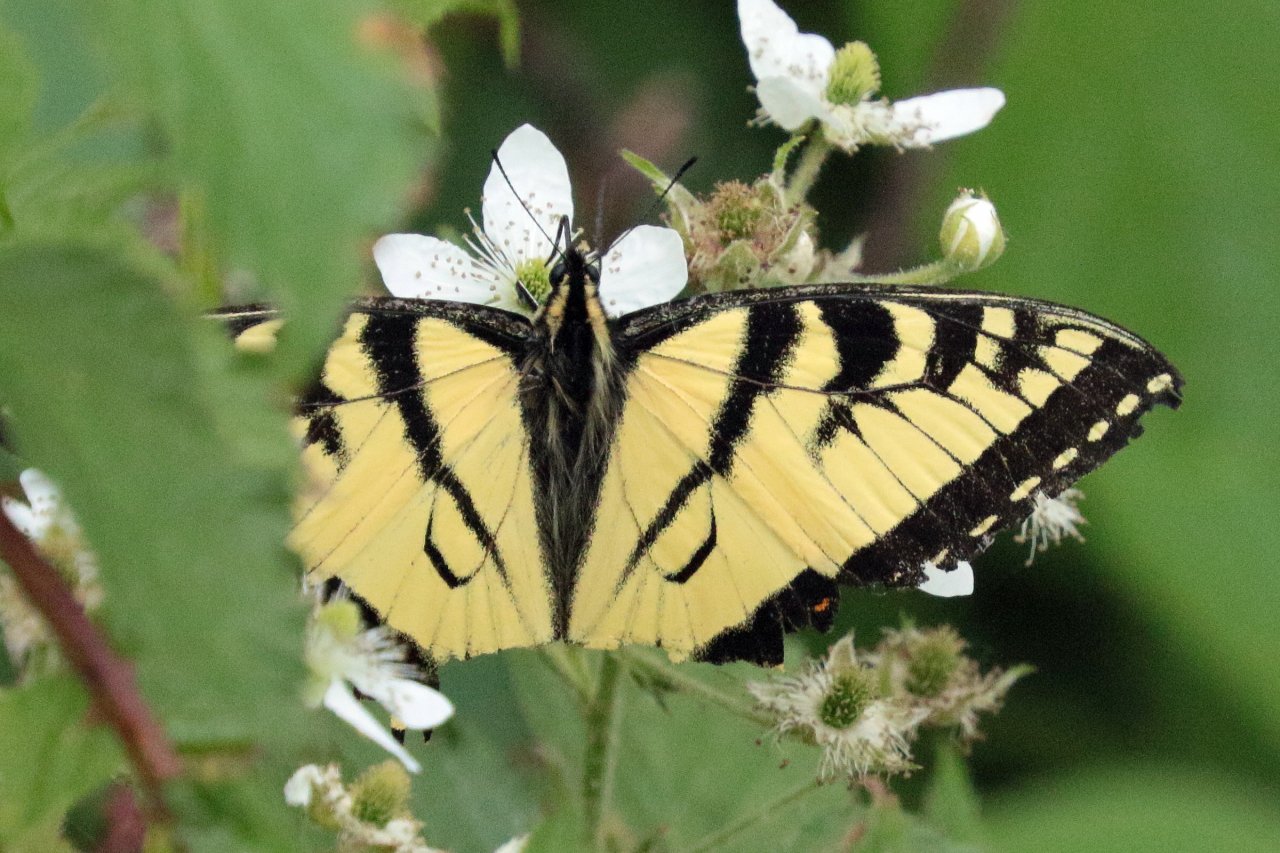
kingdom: Animalia
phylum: Arthropoda
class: Insecta
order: Lepidoptera
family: Papilionidae
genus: Pterourus
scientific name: Pterourus canadensis
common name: Canadian Tiger Swallowtail
